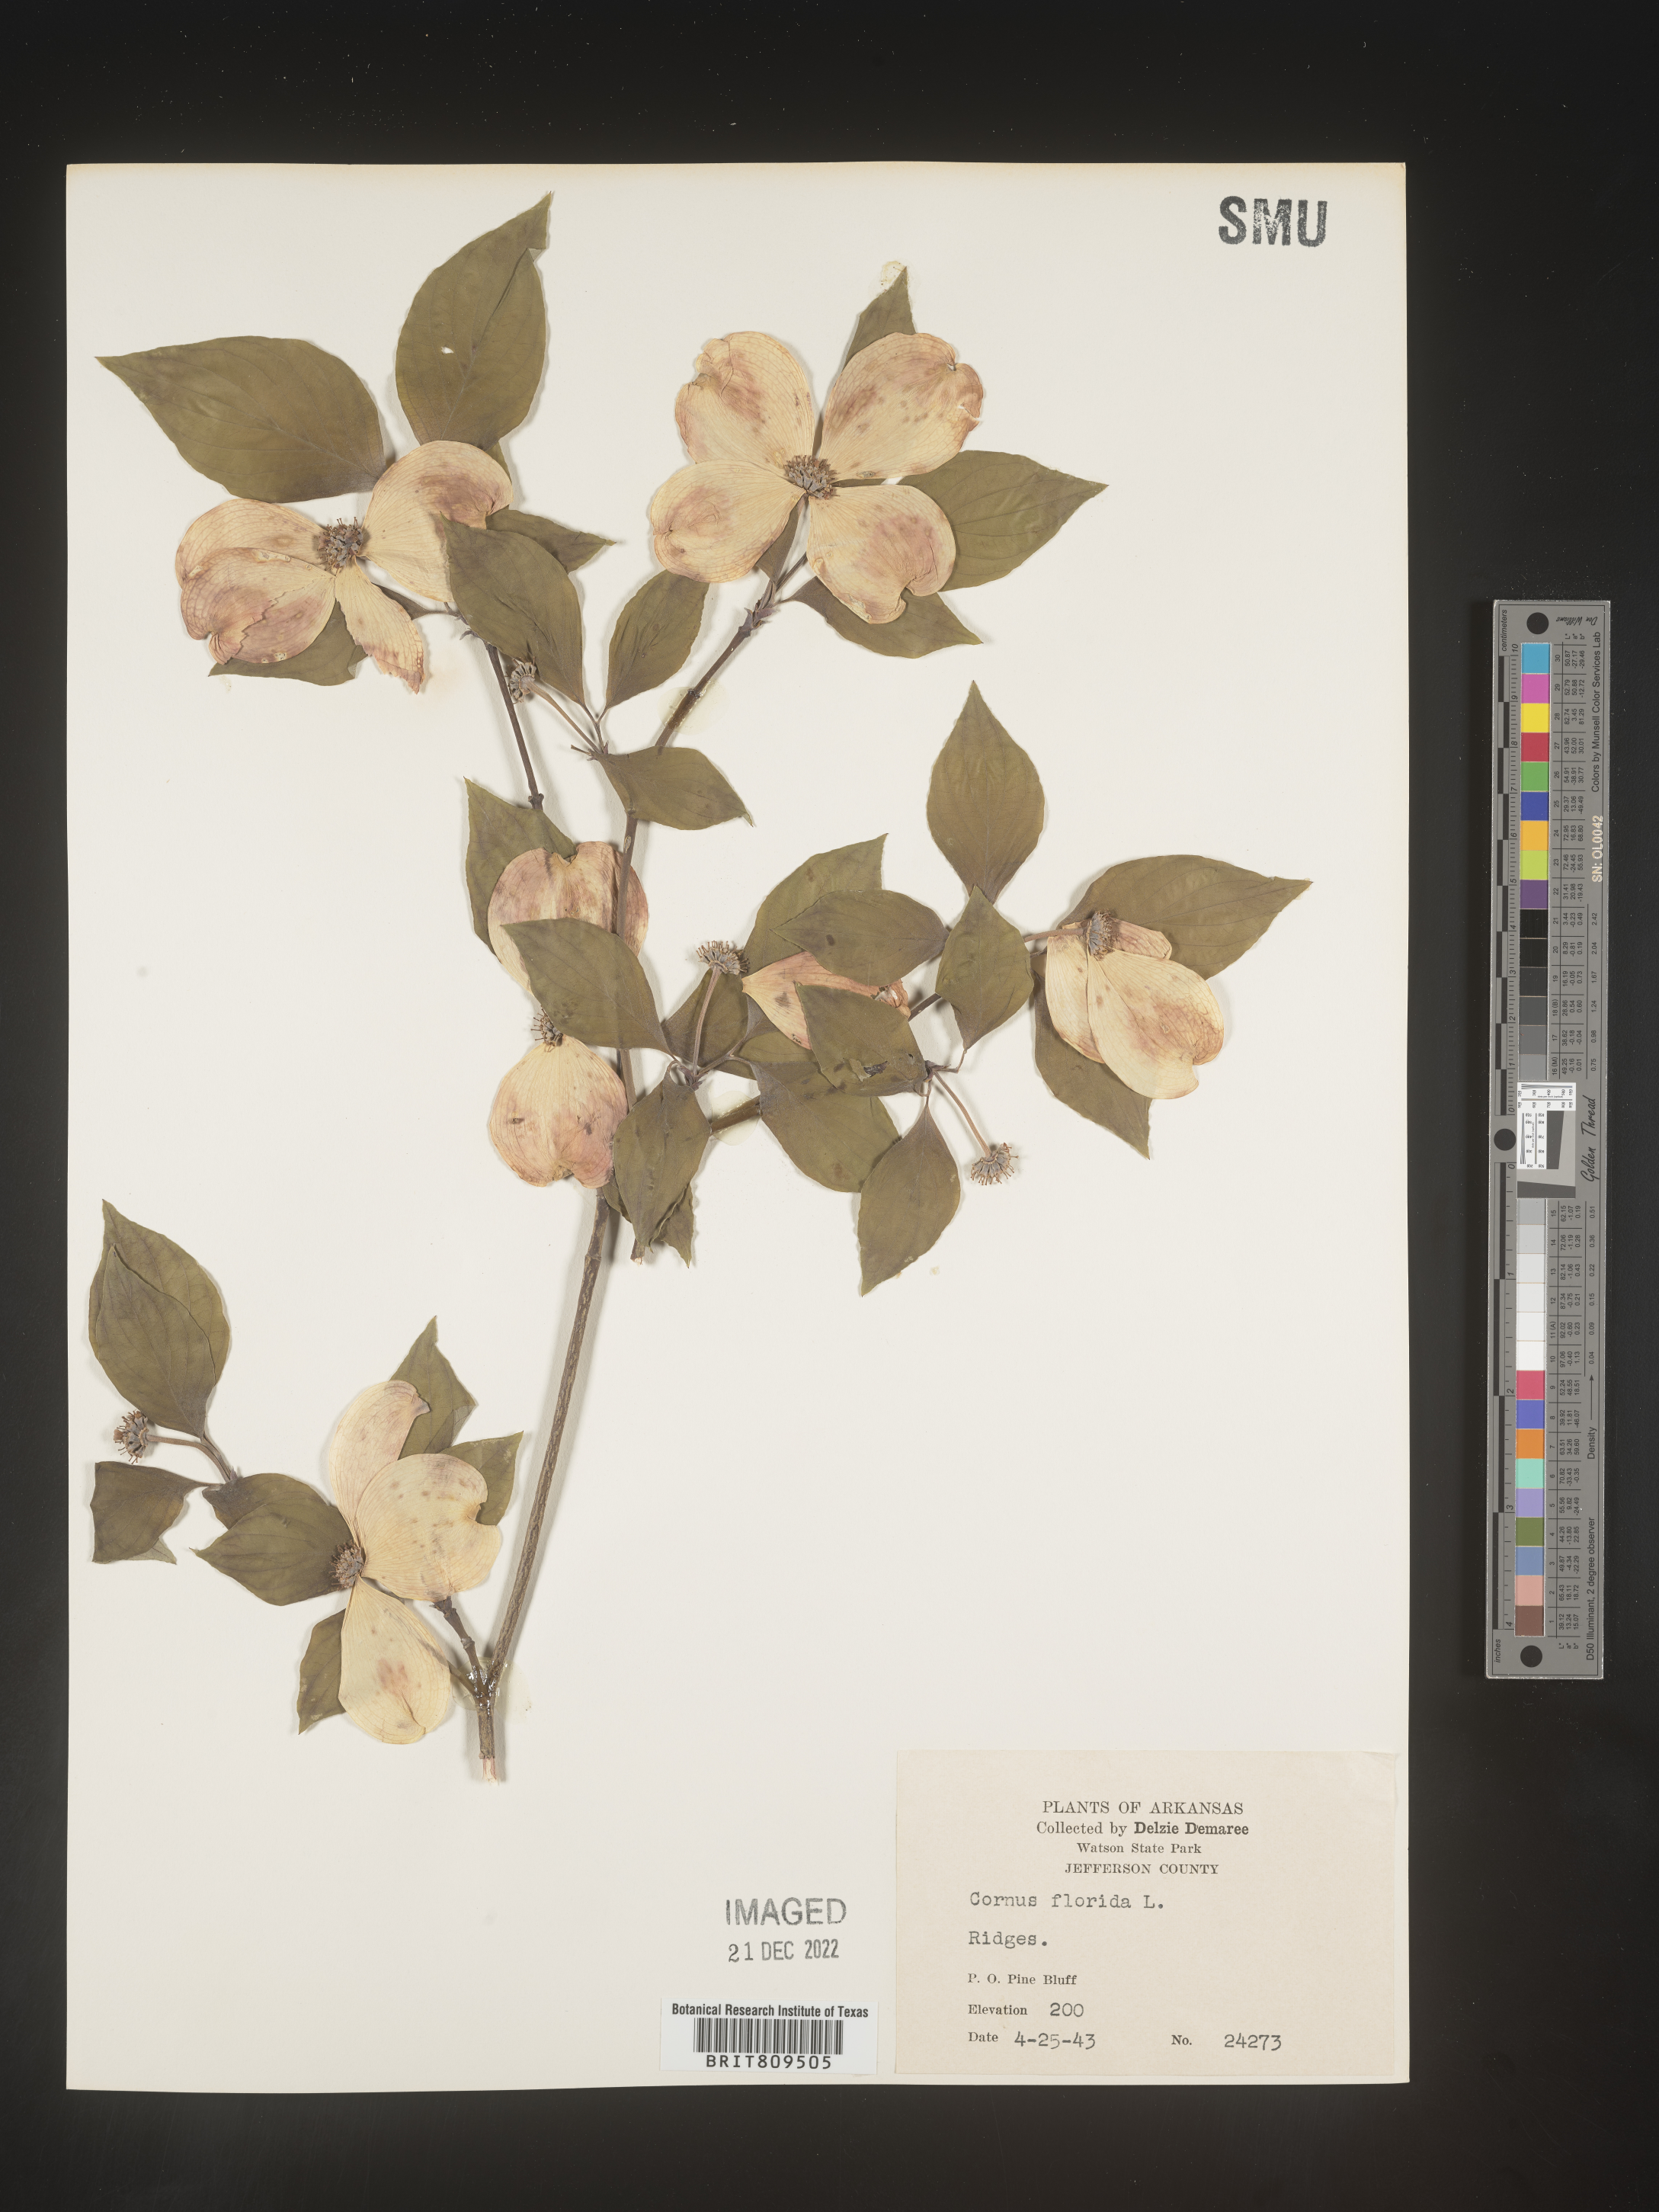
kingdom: Plantae
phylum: Tracheophyta
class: Magnoliopsida
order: Cornales
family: Cornaceae
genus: Cornus
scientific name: Cornus florida
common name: Flowering dogwood
